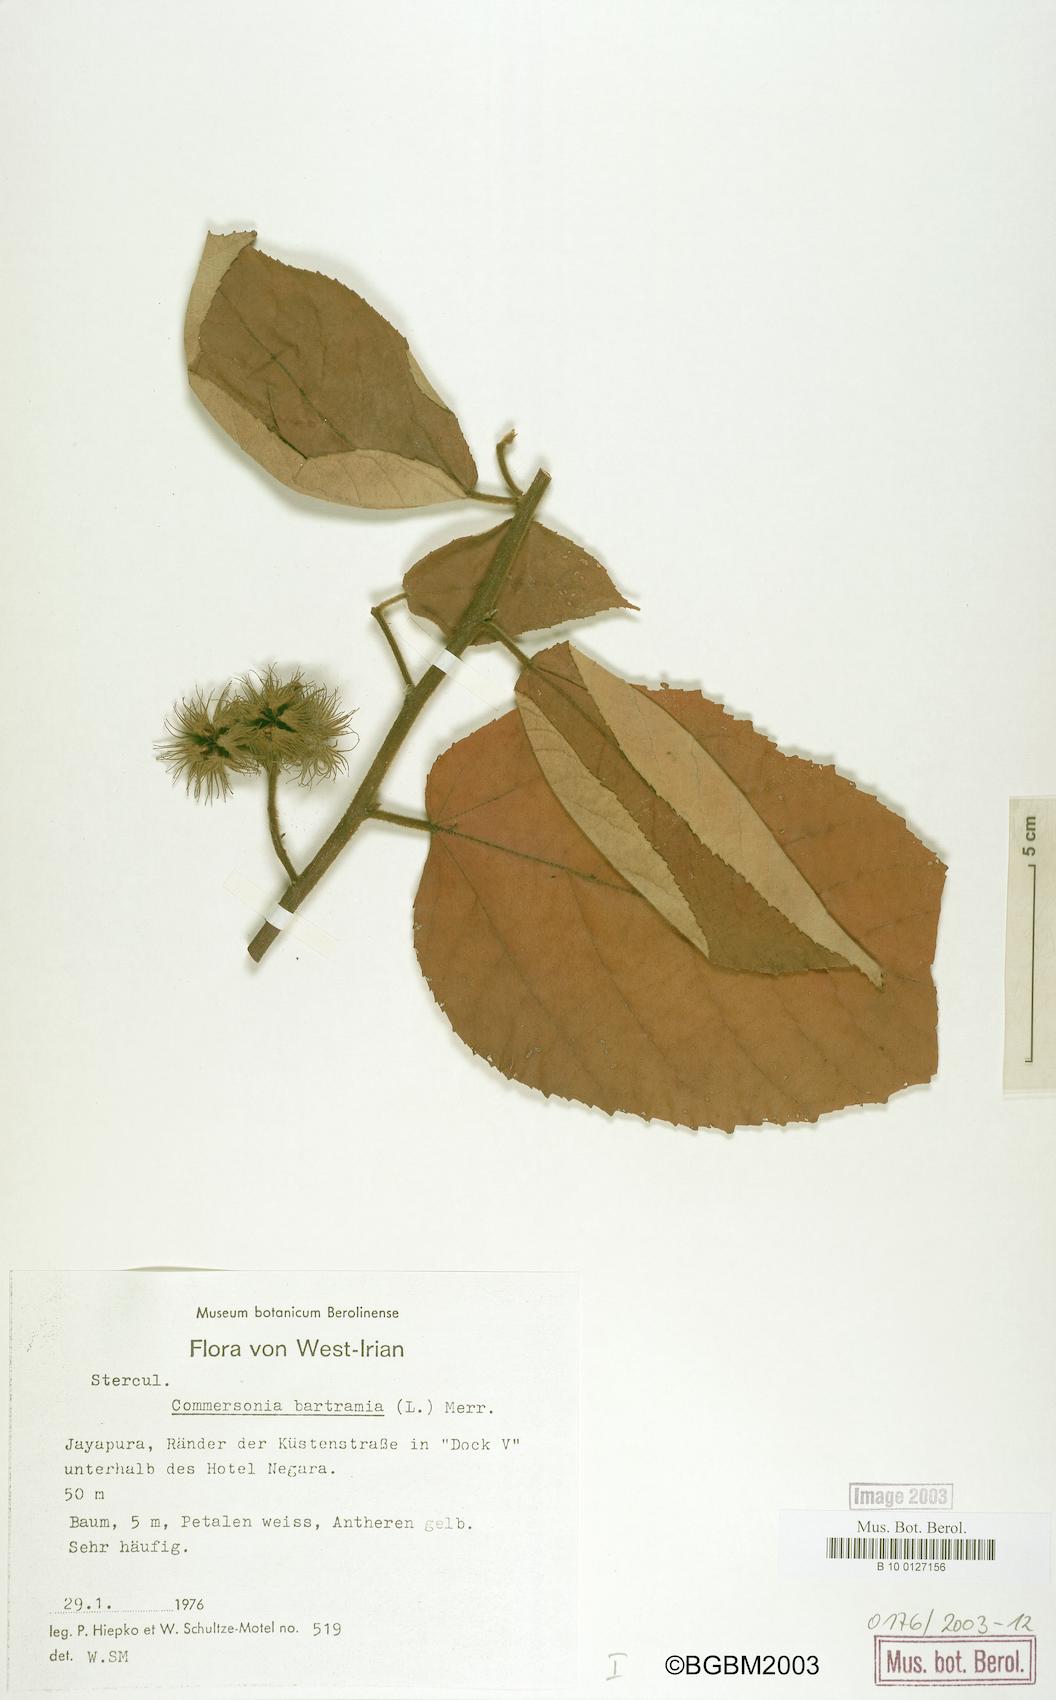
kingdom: Plantae
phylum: Tracheophyta
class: Magnoliopsida
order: Malvales
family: Malvaceae
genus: Commersonia
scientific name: Commersonia bartramia
